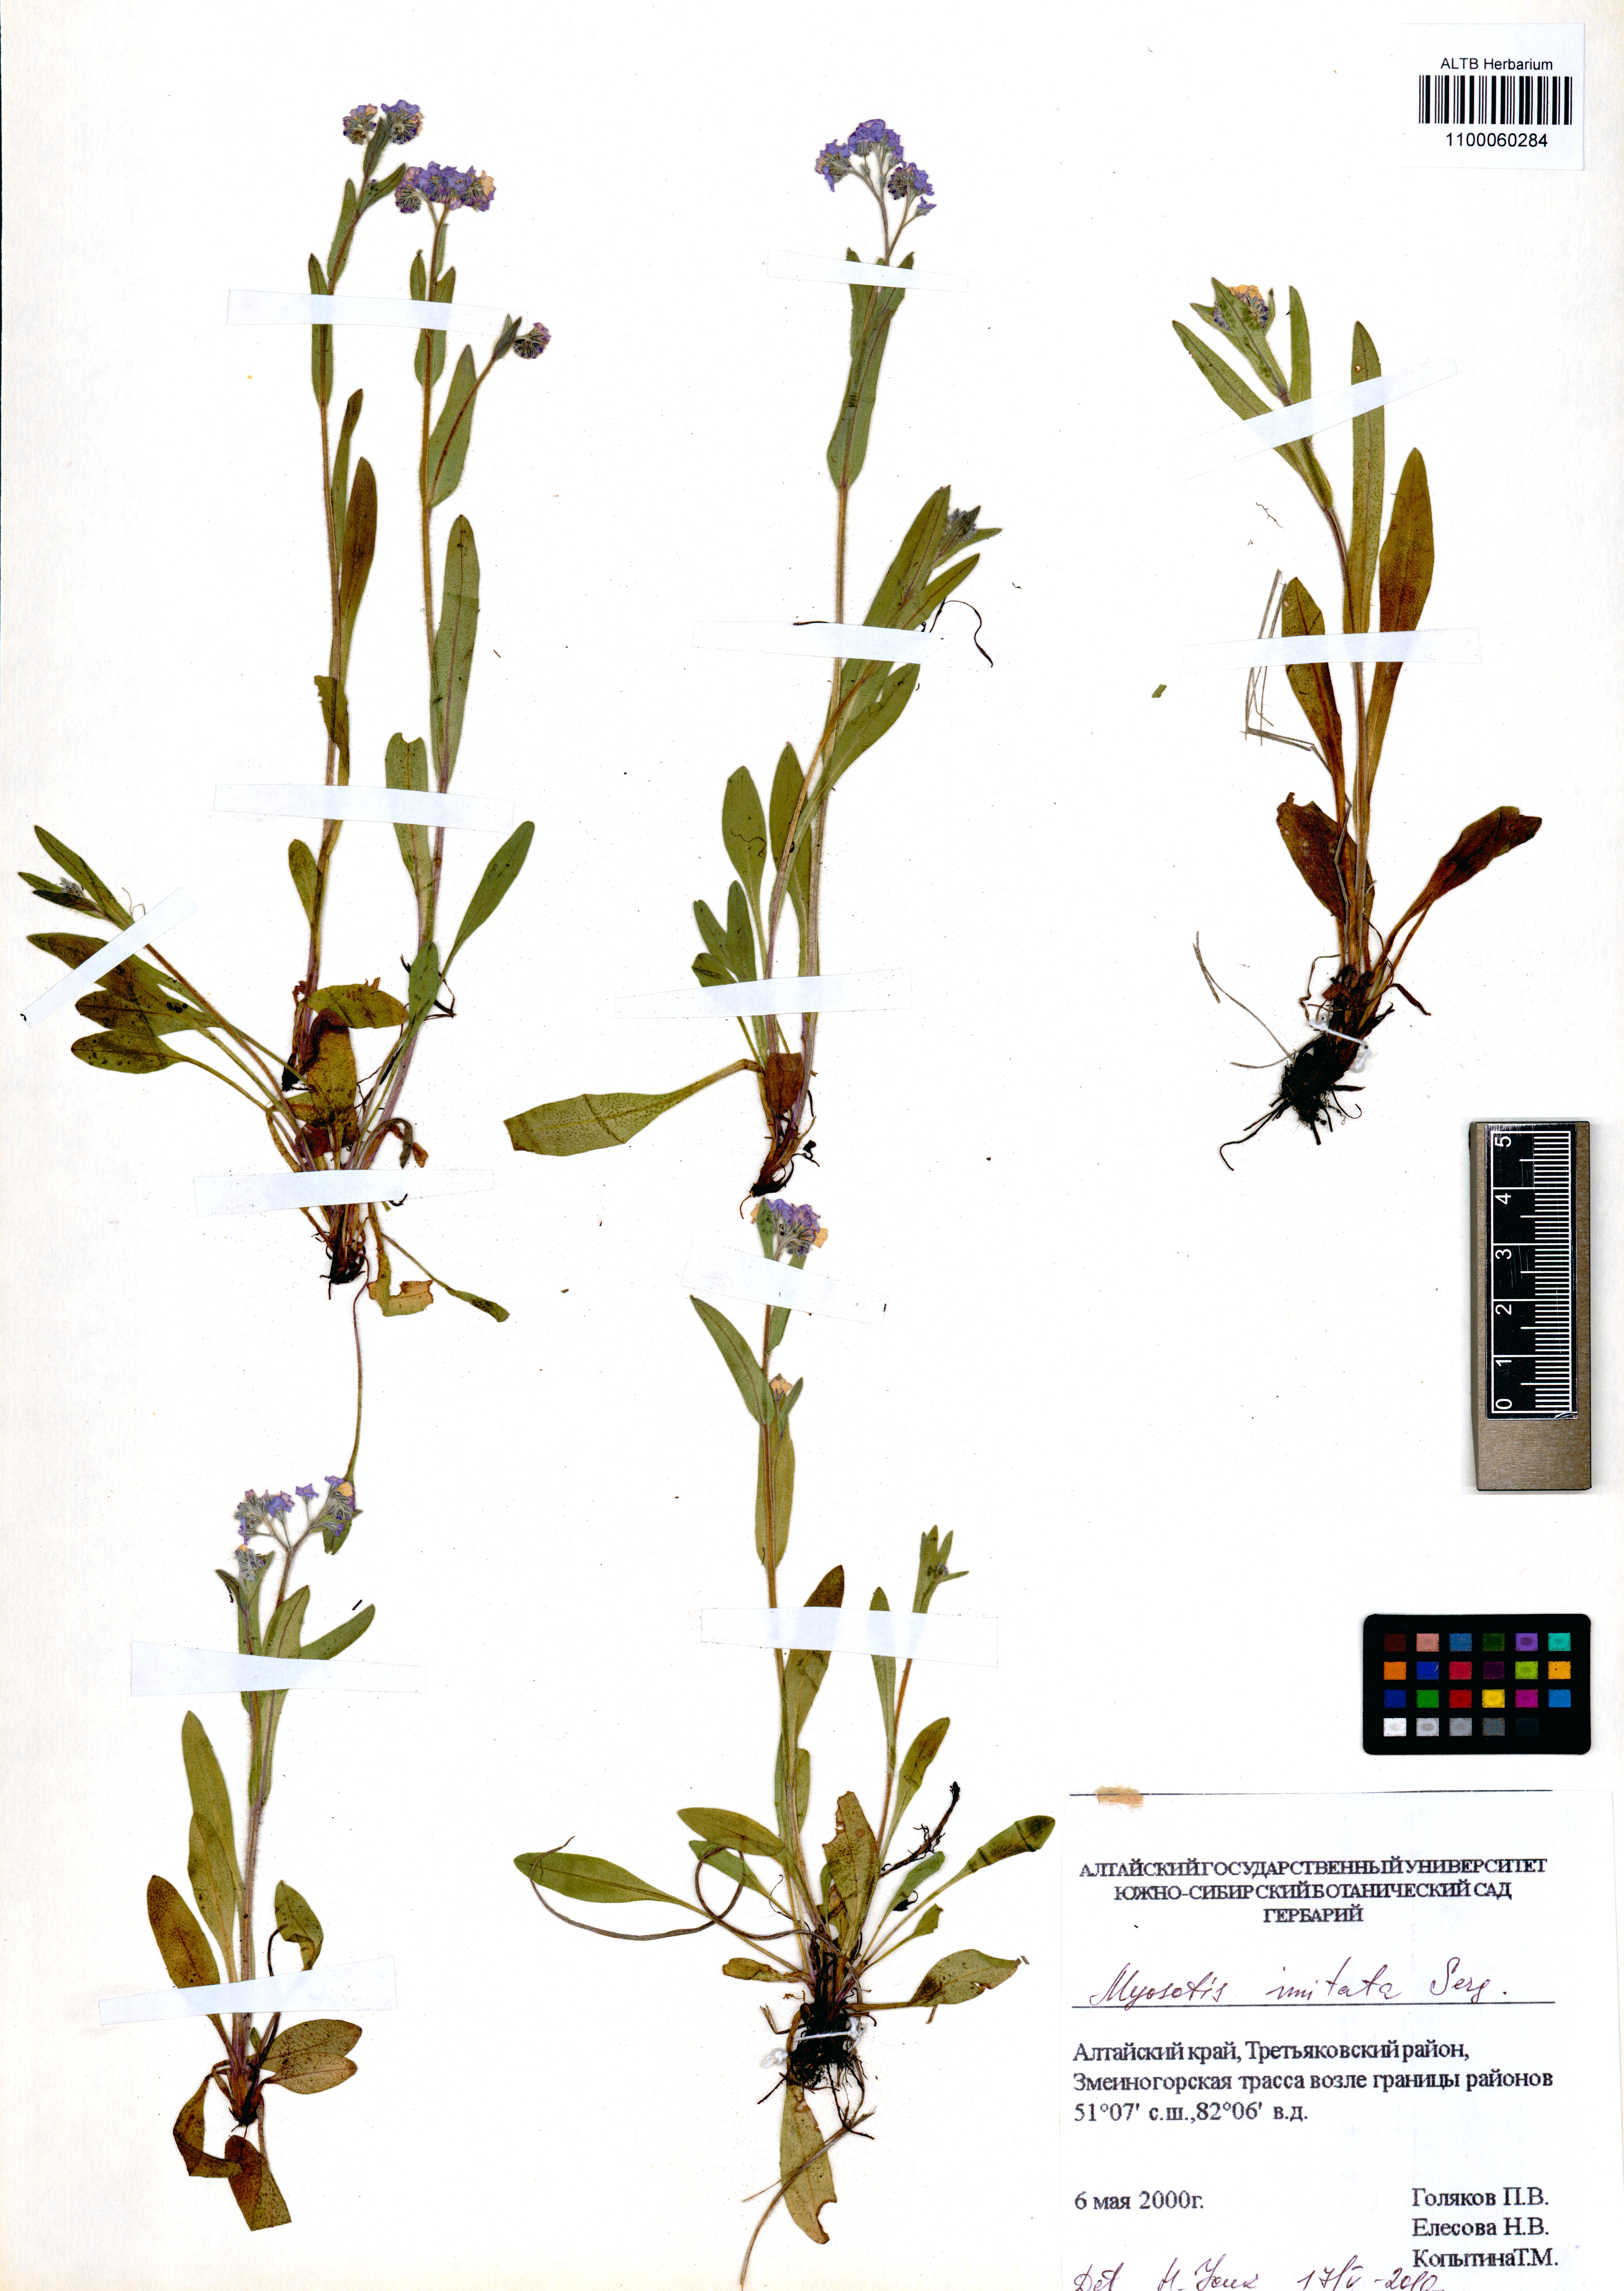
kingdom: Plantae
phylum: Tracheophyta
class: Magnoliopsida
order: Boraginales
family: Boraginaceae
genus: Myosotis
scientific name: Myosotis imitata
